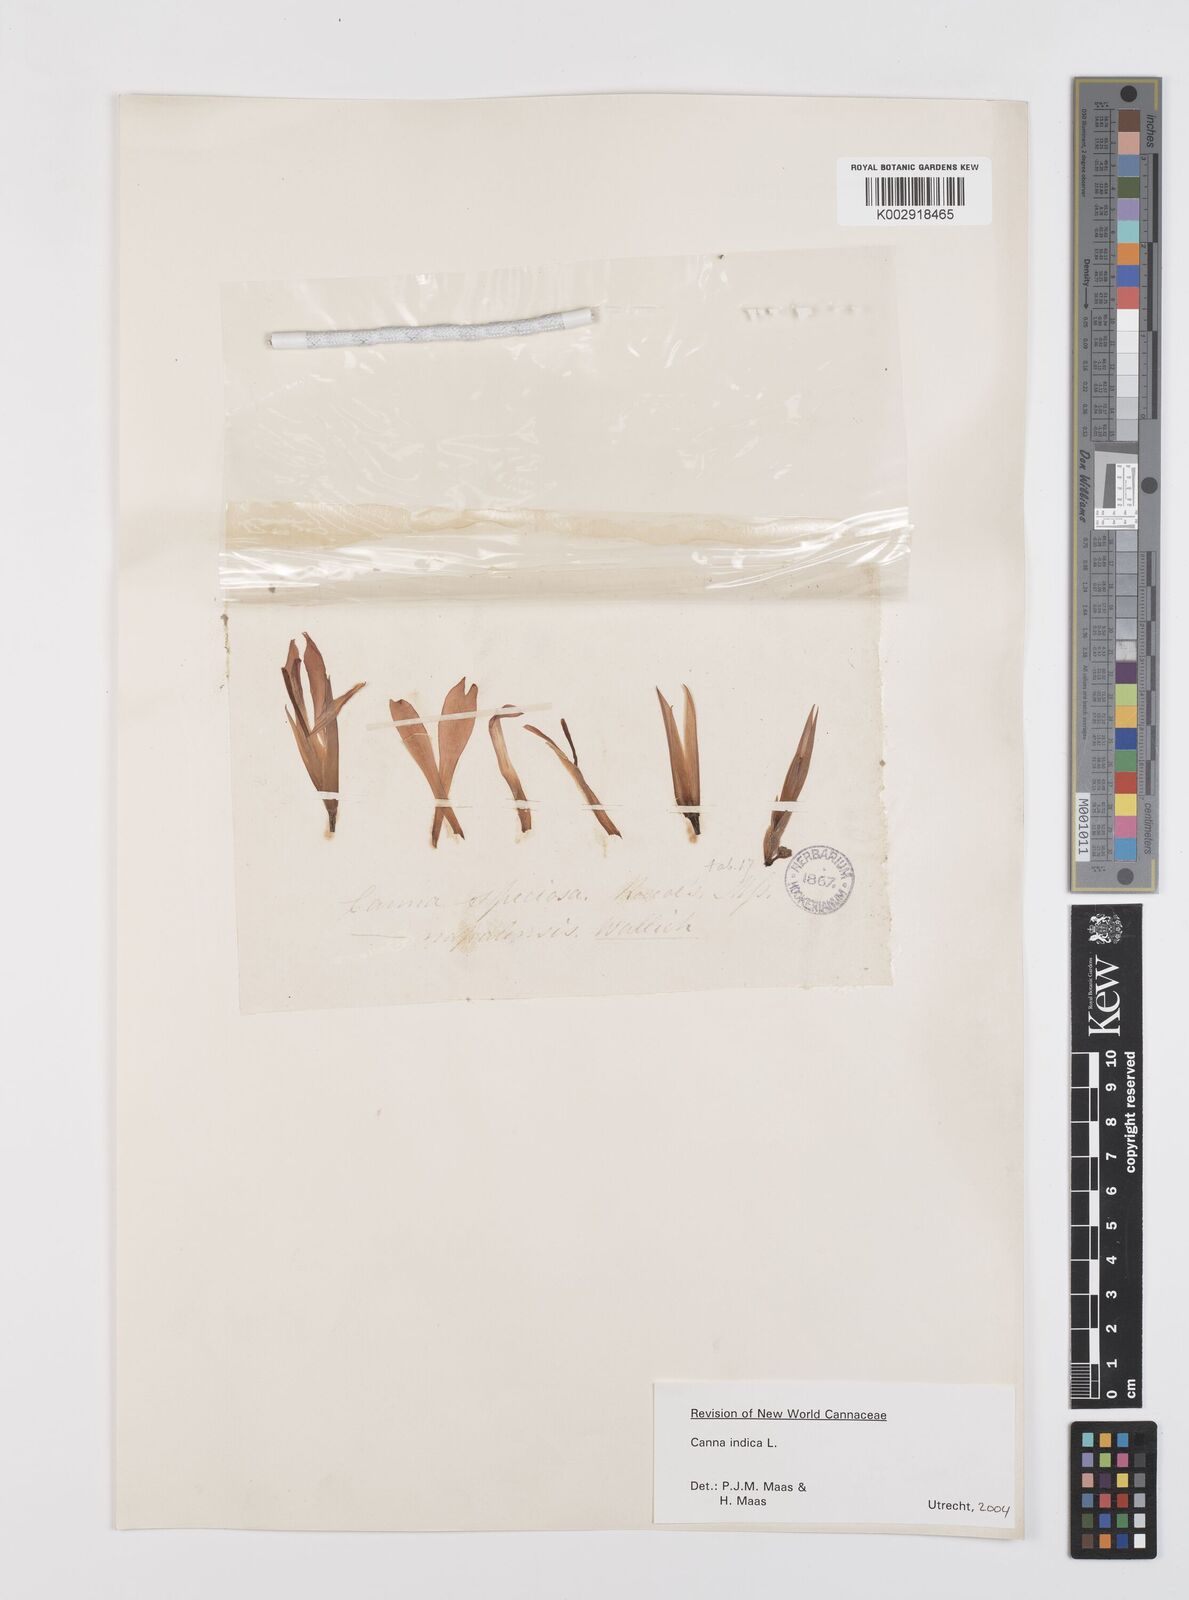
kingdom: Plantae
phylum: Tracheophyta
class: Liliopsida
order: Zingiberales
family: Cannaceae
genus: Canna
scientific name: Canna indica
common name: Indian shot
